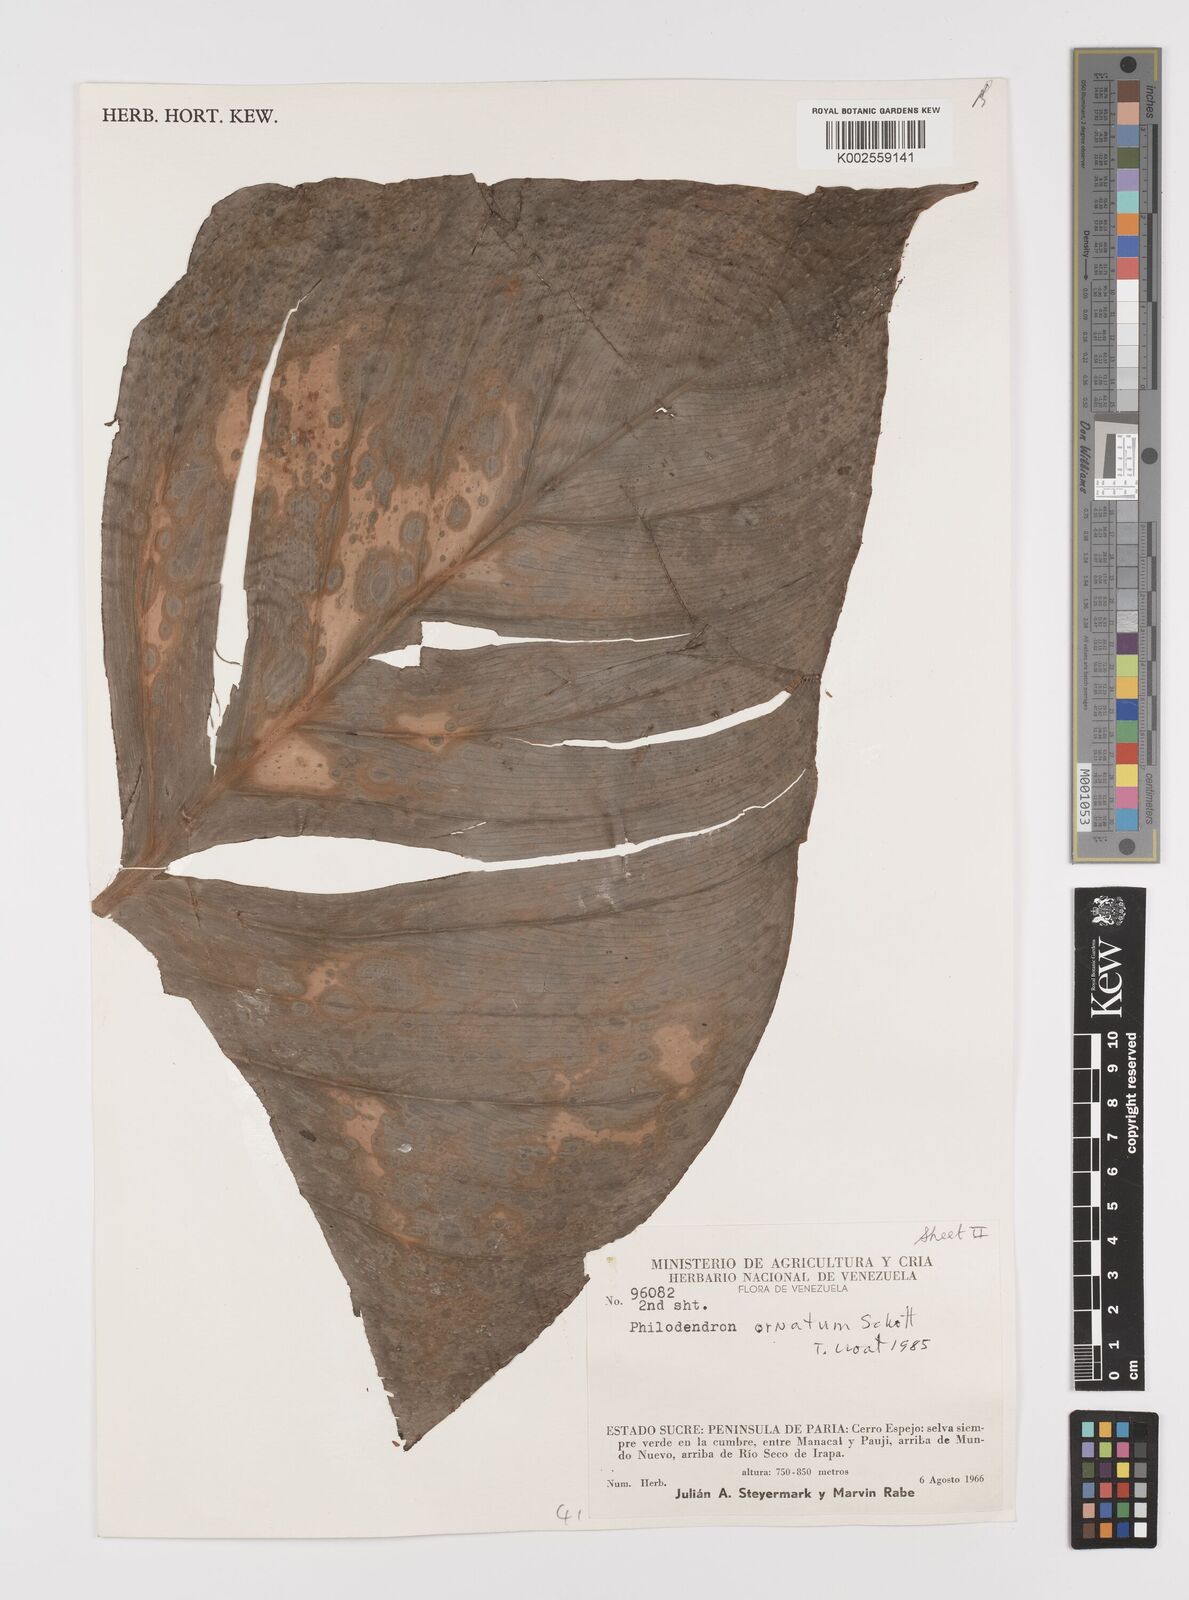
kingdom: Plantae
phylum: Tracheophyta
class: Liliopsida
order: Alismatales
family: Araceae
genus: Philodendron
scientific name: Philodendron ornatum
